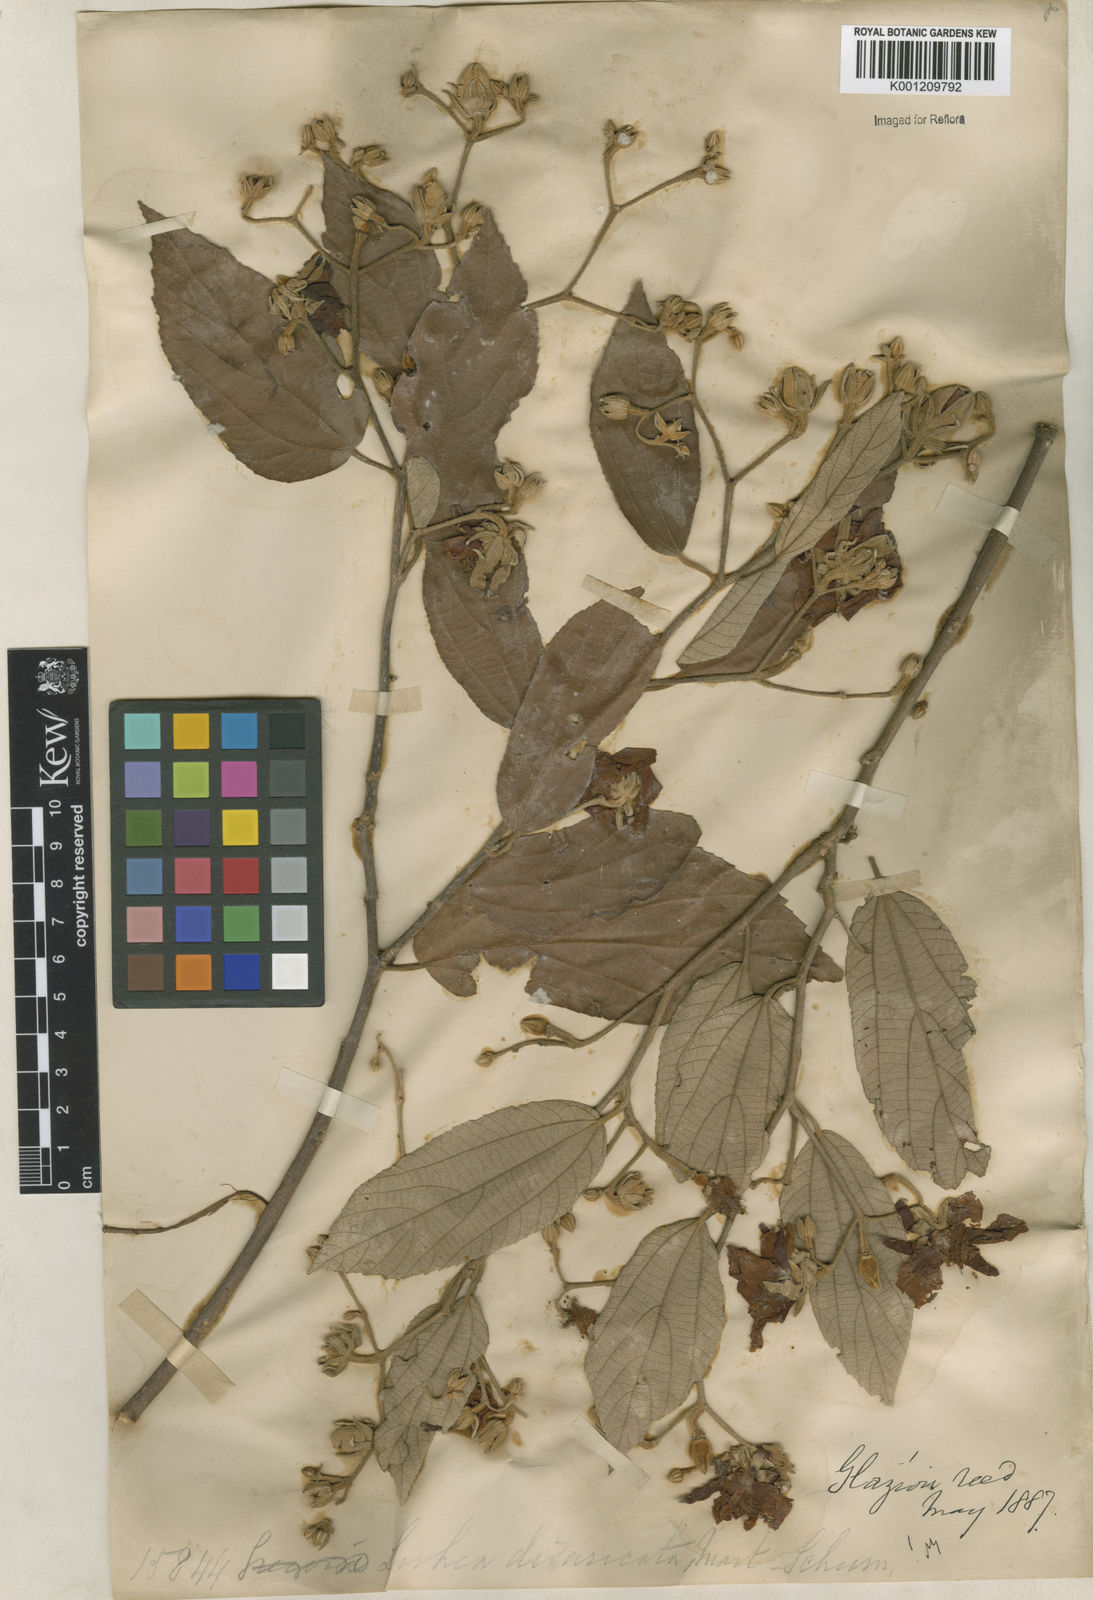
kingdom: Plantae
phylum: Tracheophyta
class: Magnoliopsida
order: Malvales
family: Malvaceae
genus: Luehea
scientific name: Luehea divaricata
